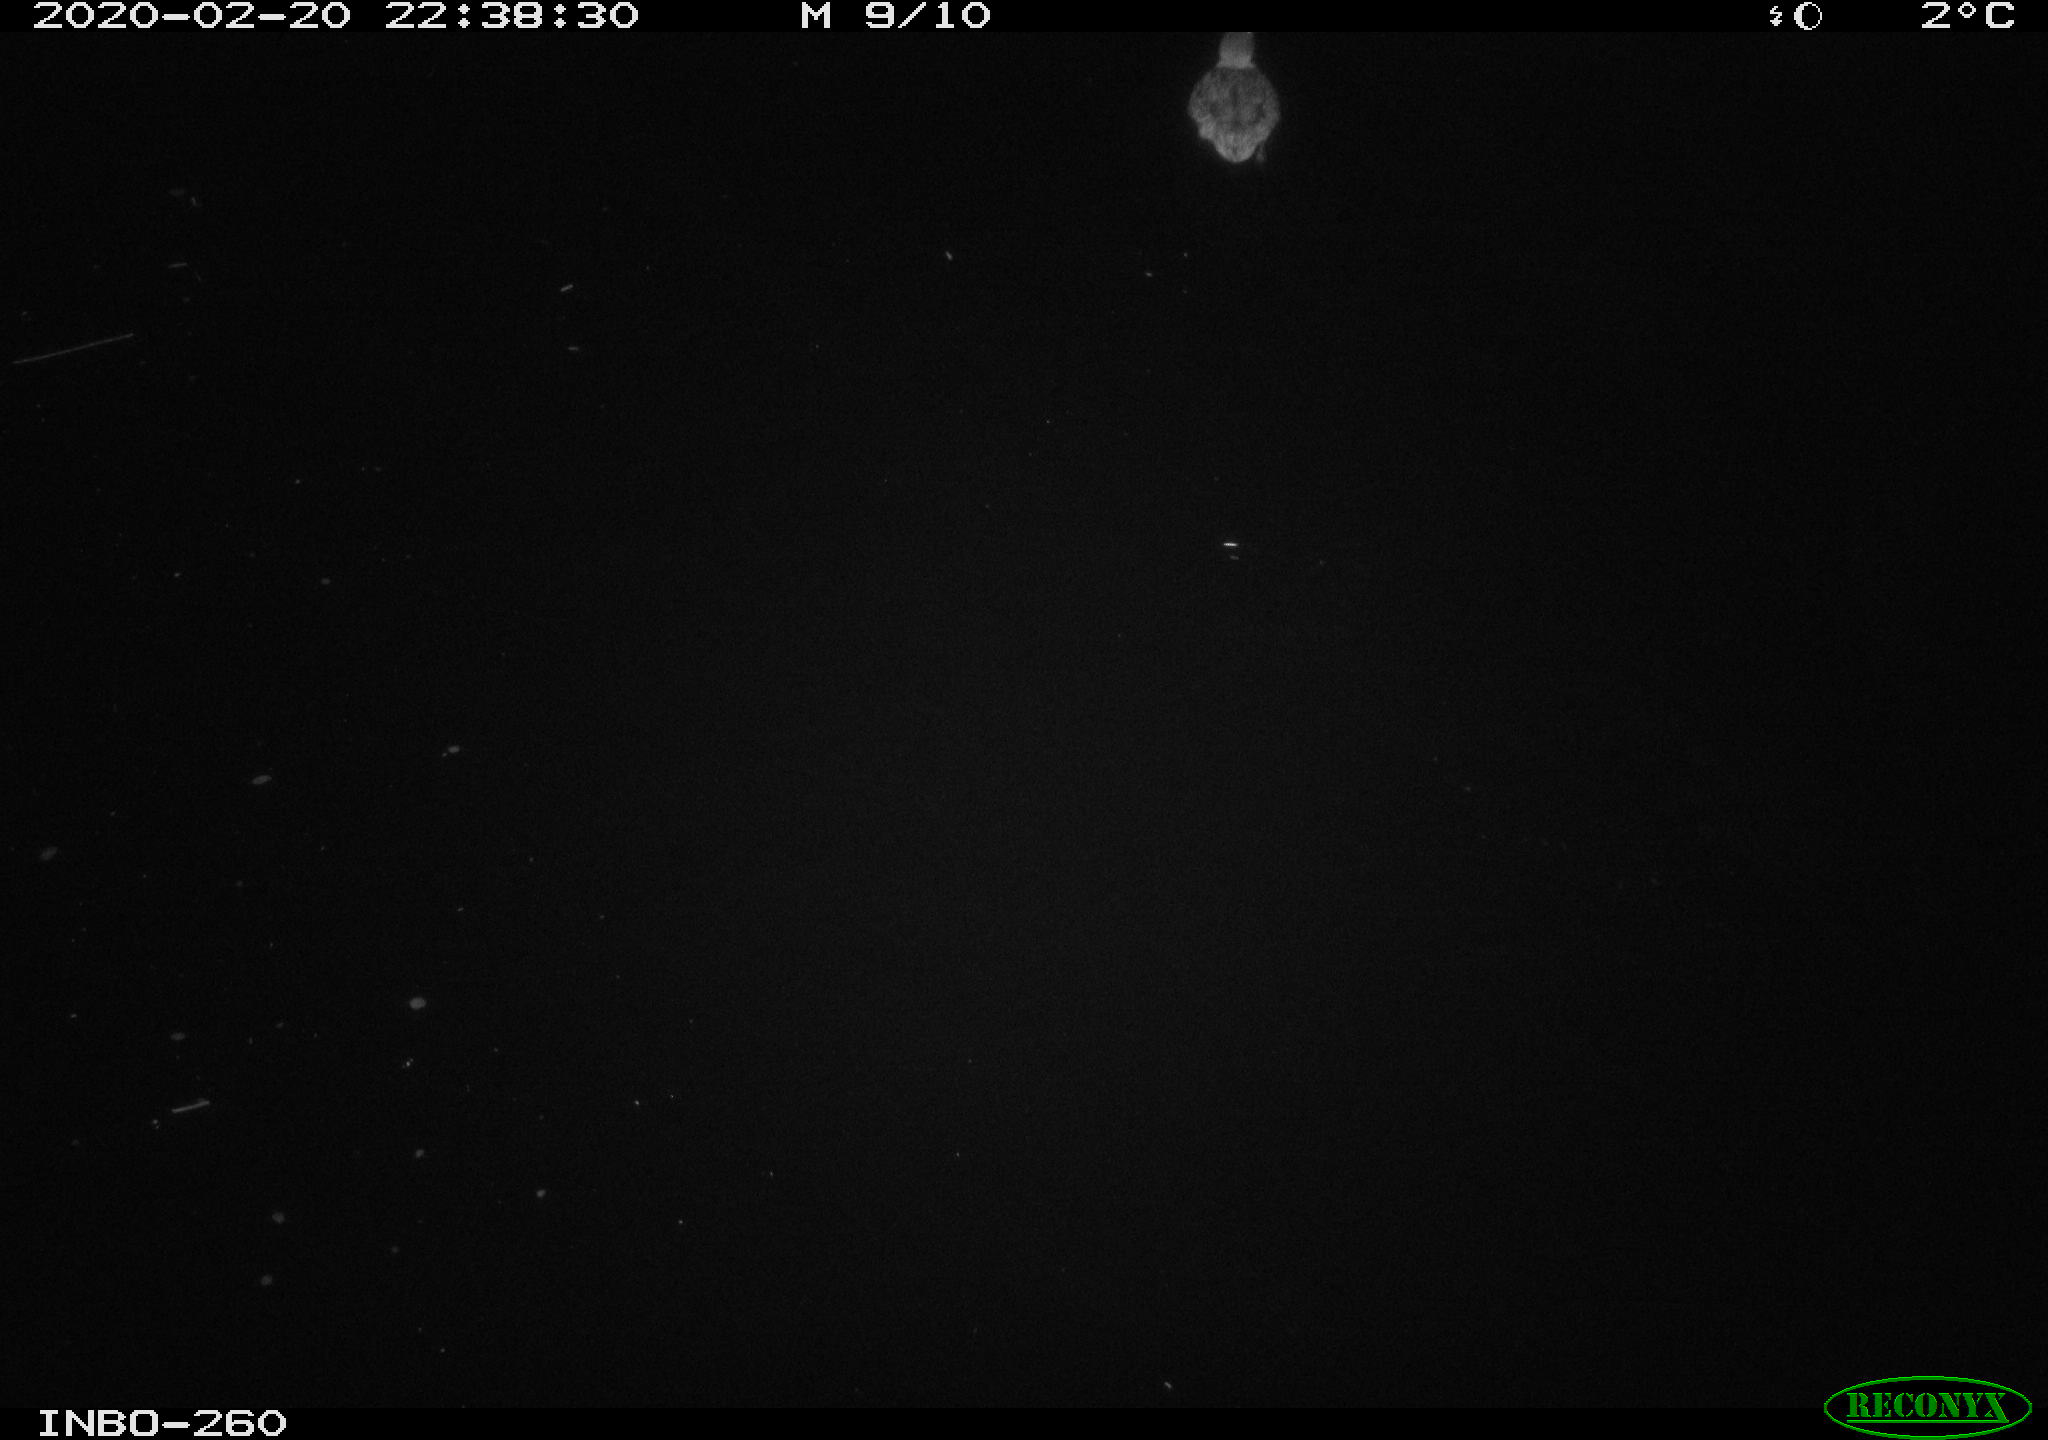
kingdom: Animalia
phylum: Chordata
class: Aves
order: Anseriformes
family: Anatidae
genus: Anas
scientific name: Anas platyrhynchos
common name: Mallard
